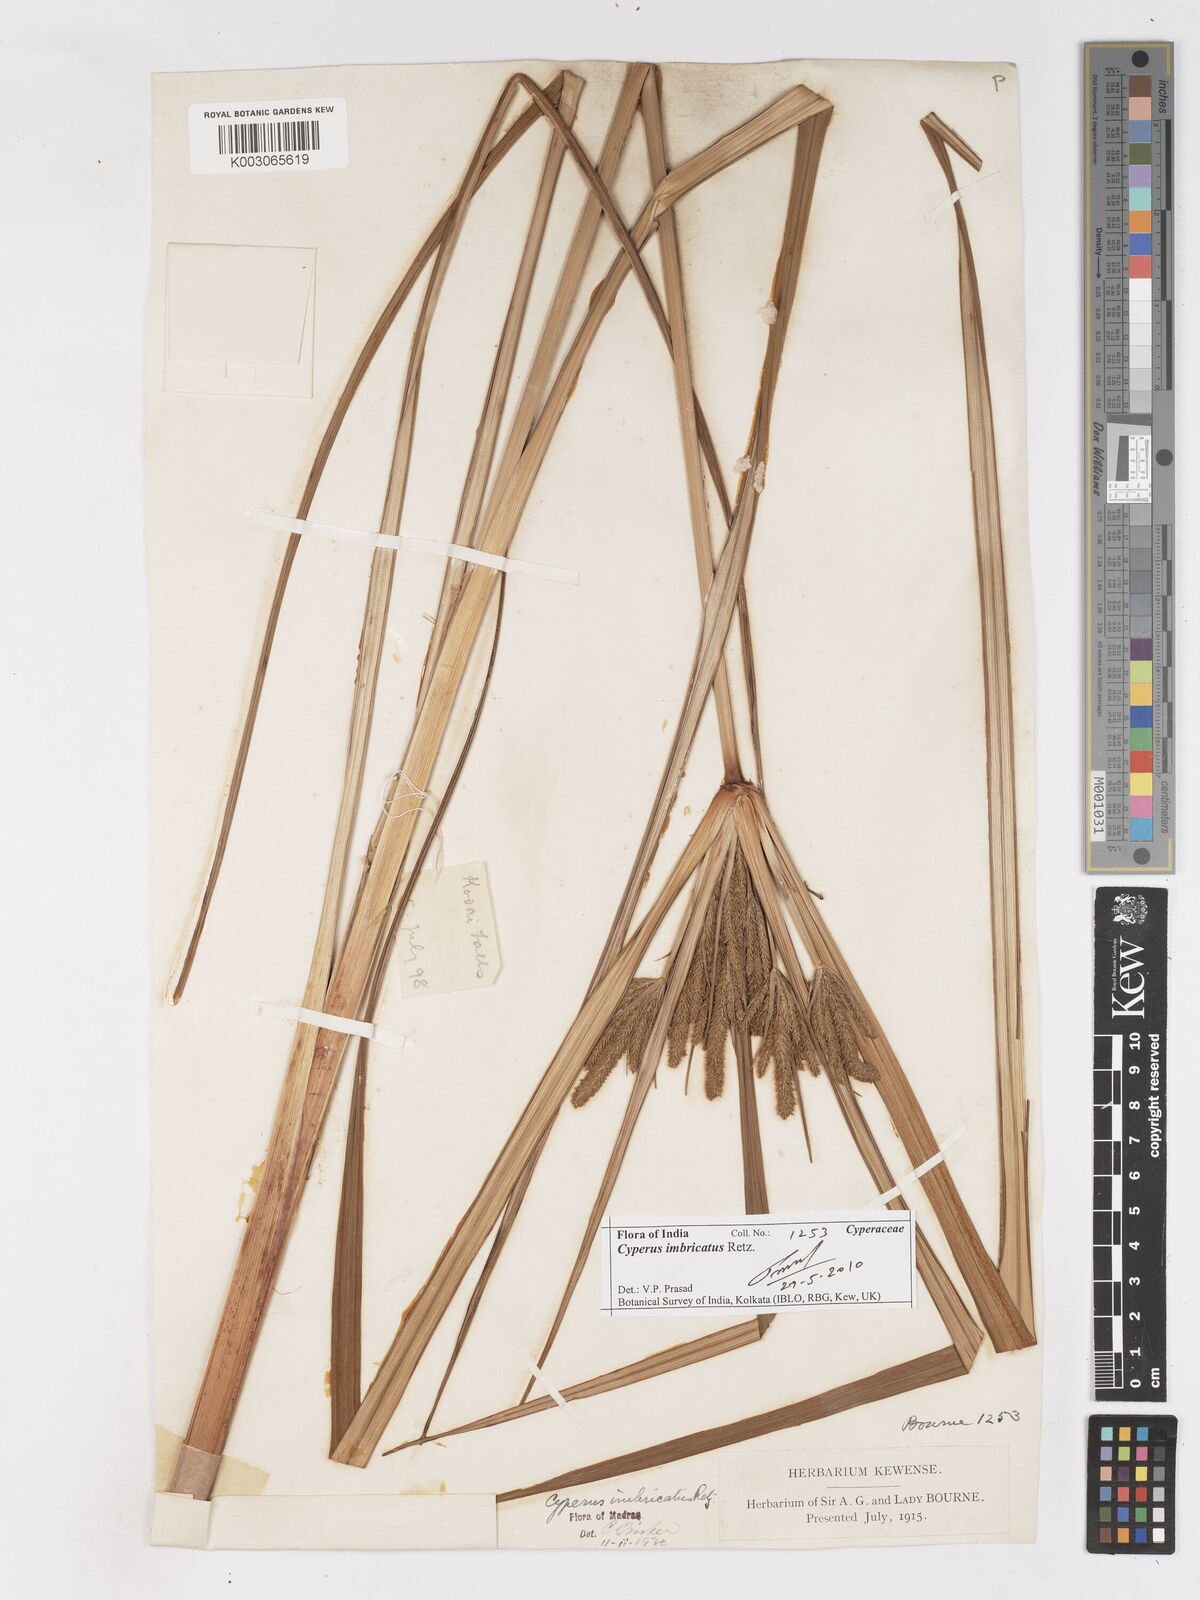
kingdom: Plantae
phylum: Tracheophyta
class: Liliopsida
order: Poales
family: Cyperaceae
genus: Cyperus
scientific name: Cyperus imbricatus
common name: Shingle flatsedge
